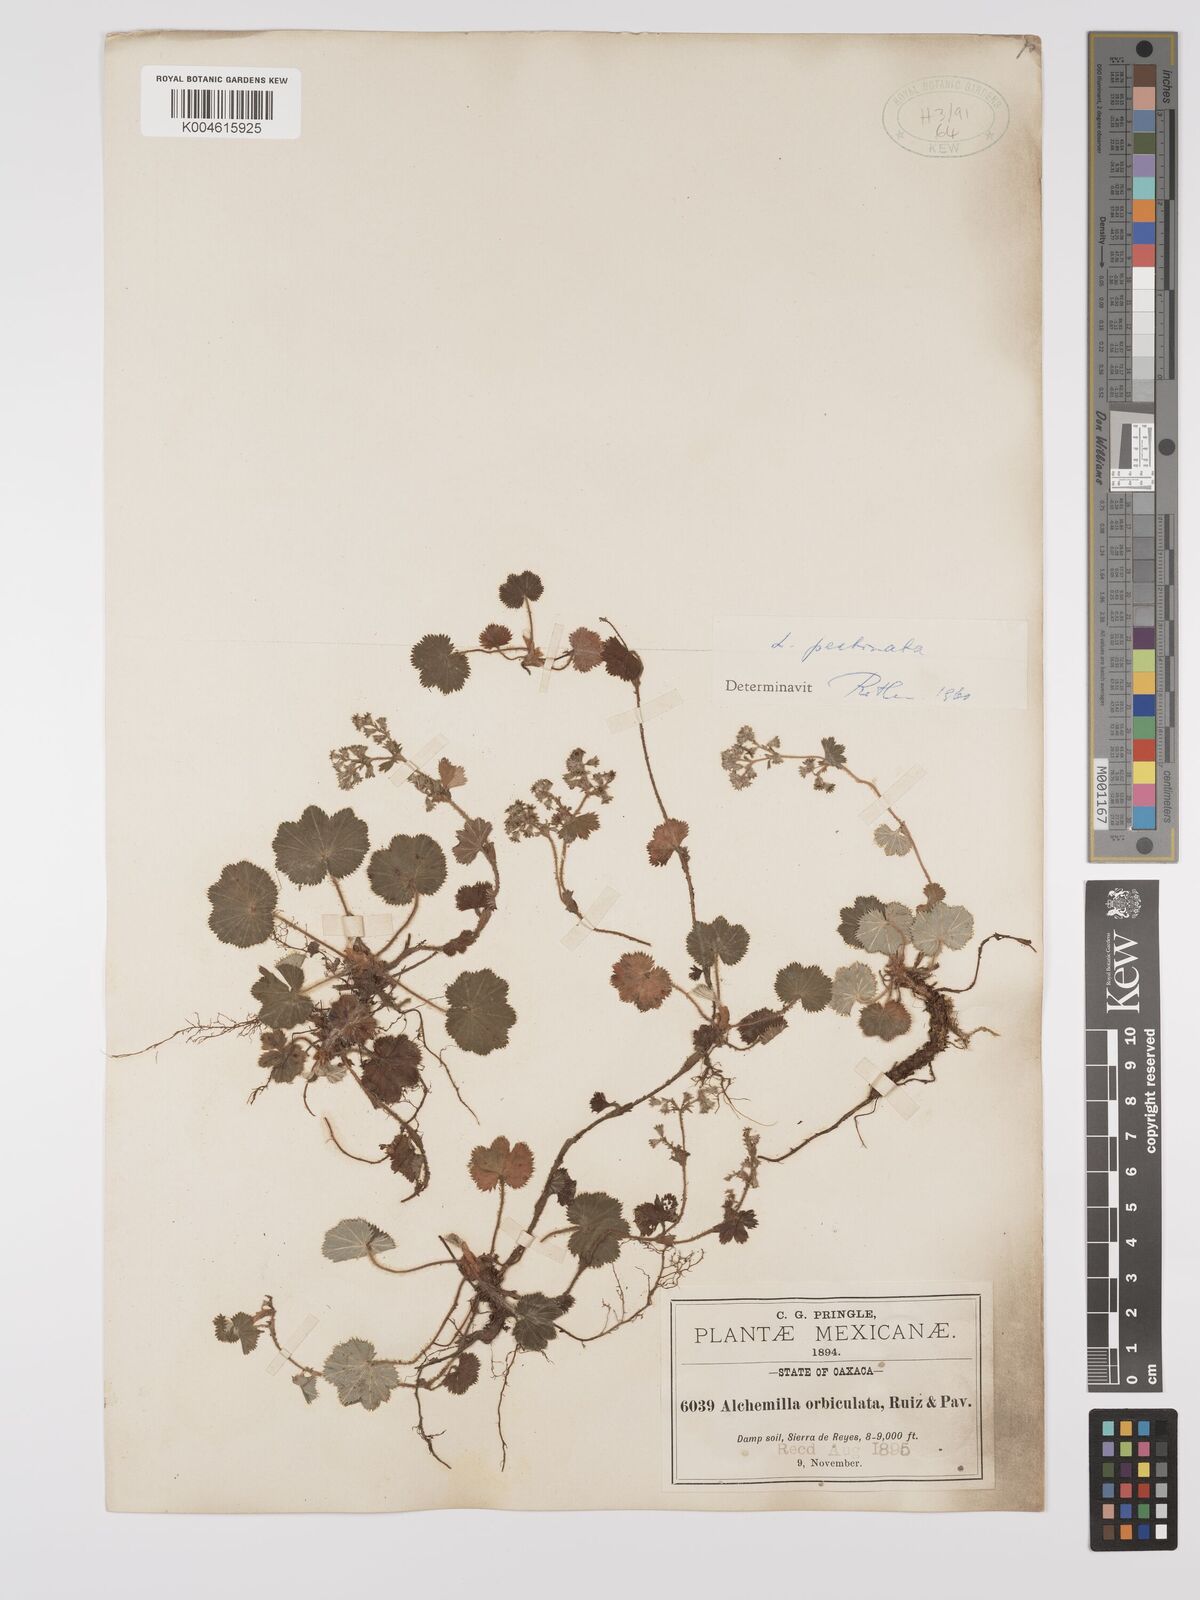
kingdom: Plantae
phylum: Tracheophyta
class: Magnoliopsida
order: Rosales
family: Rosaceae
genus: Lachemilla
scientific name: Lachemilla pectinata
